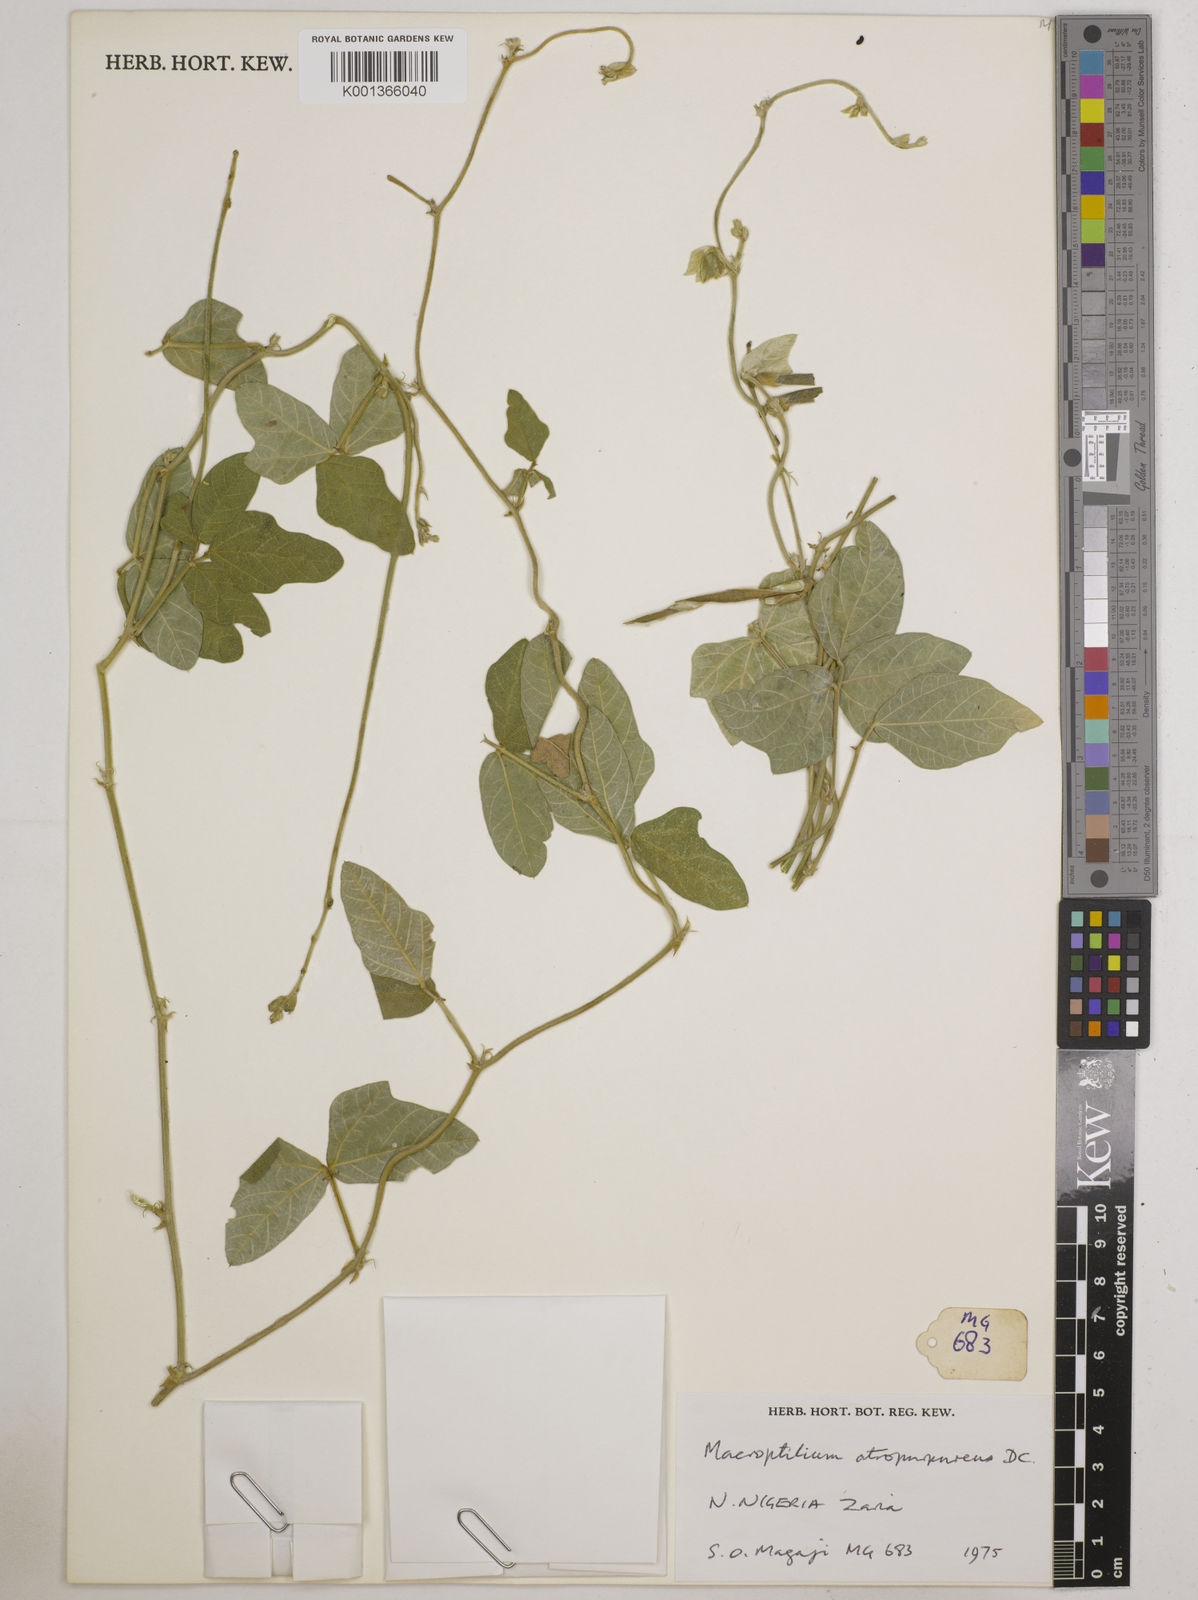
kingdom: Plantae
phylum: Tracheophyta
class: Magnoliopsida
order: Fabales
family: Fabaceae
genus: Macroptilium
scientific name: Macroptilium atropurpureum
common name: Purple bushbean
